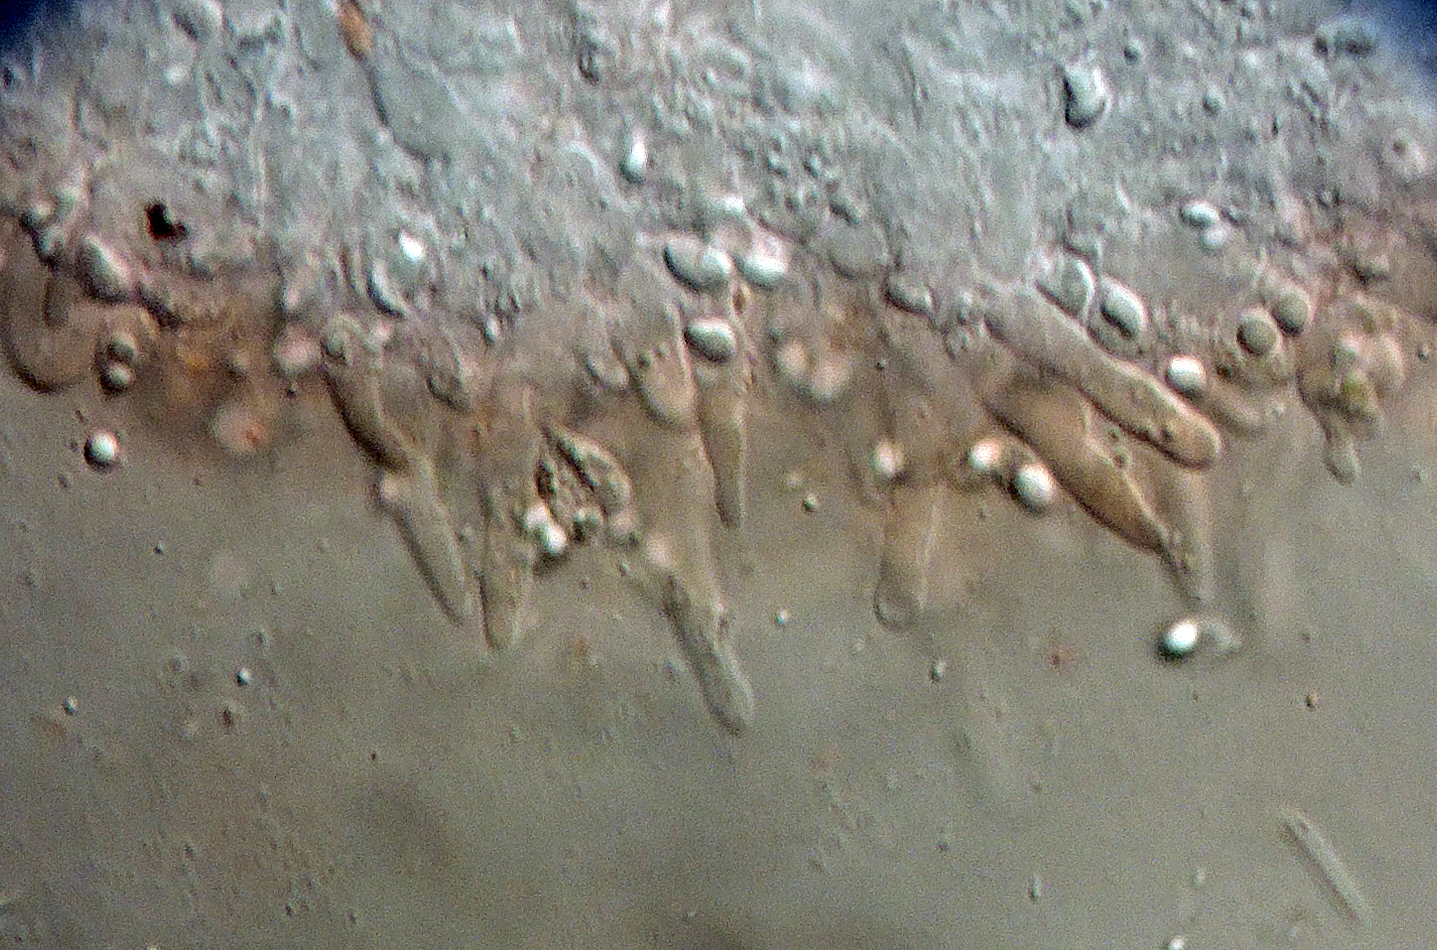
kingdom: Fungi
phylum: Basidiomycota
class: Agaricomycetes
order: Agaricales
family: Mycenaceae
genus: Atheniella
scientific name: Atheniella delectabilis
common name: nitrøs huesvamp
